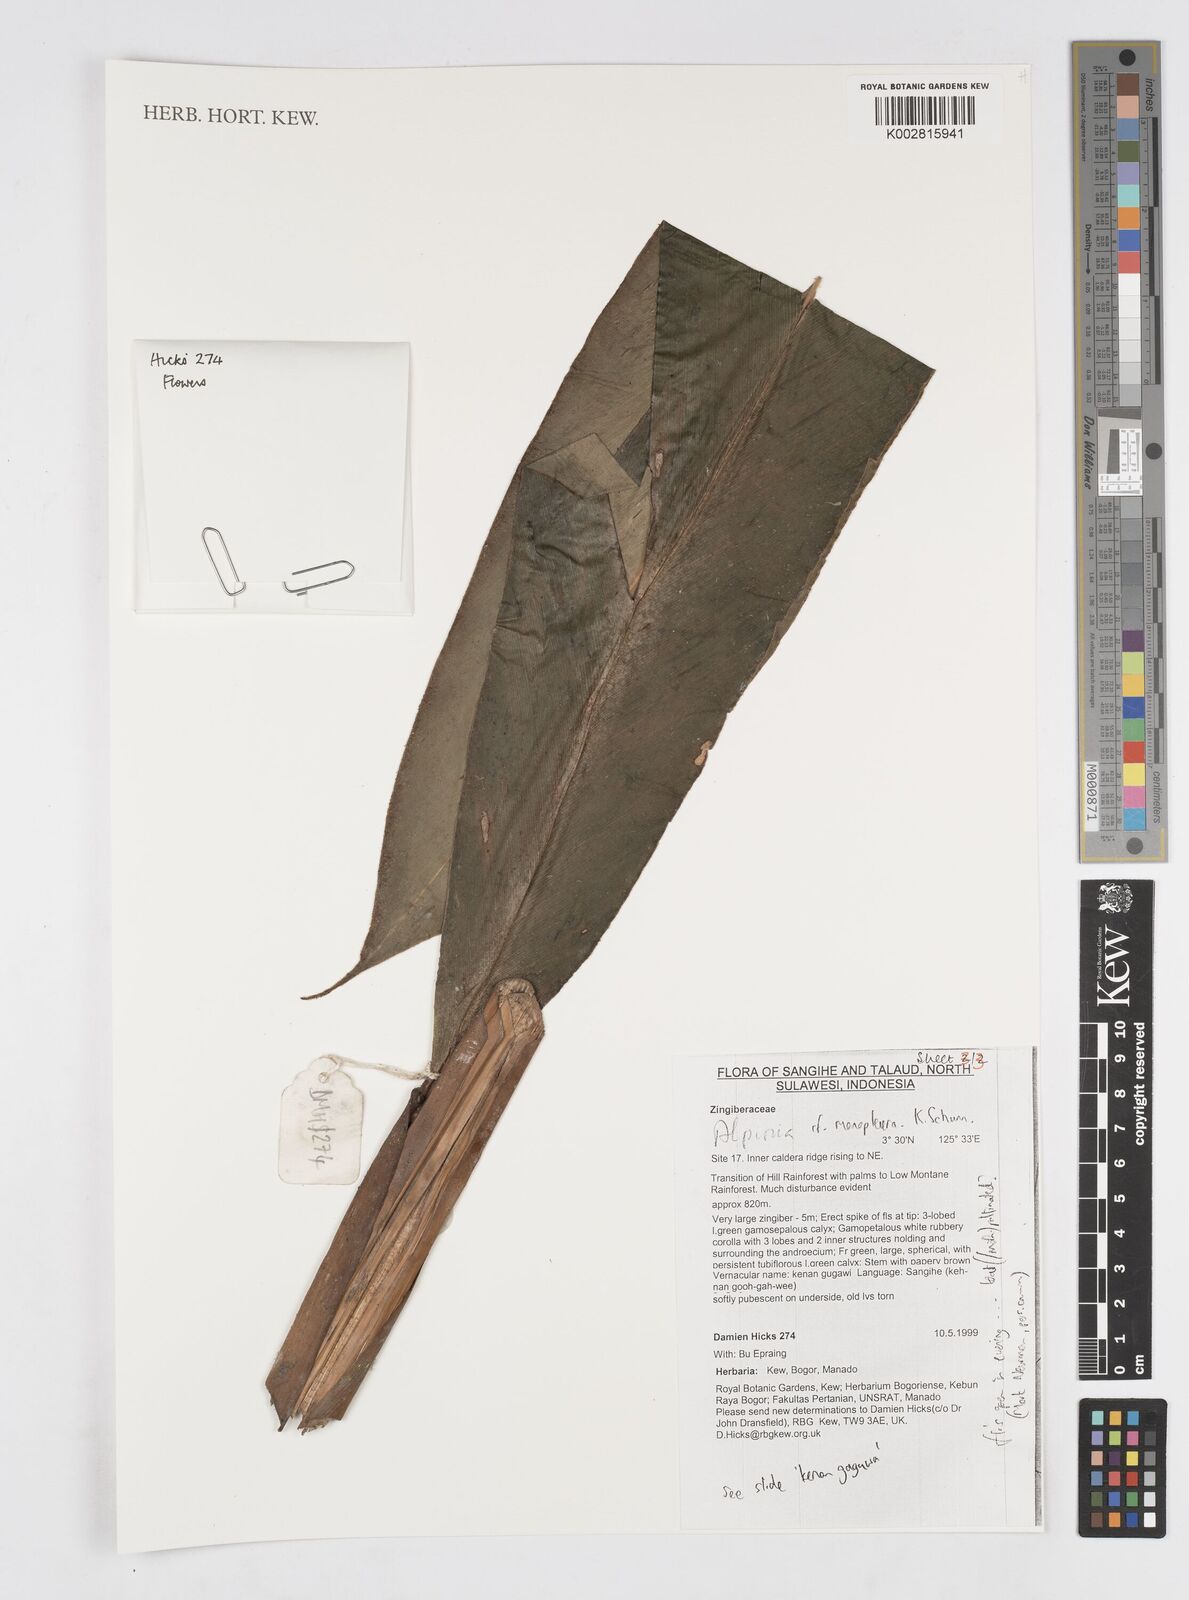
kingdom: Plantae
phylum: Tracheophyta
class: Liliopsida
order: Zingiberales
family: Zingiberaceae
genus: Alpinia
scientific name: Alpinia monopleura
